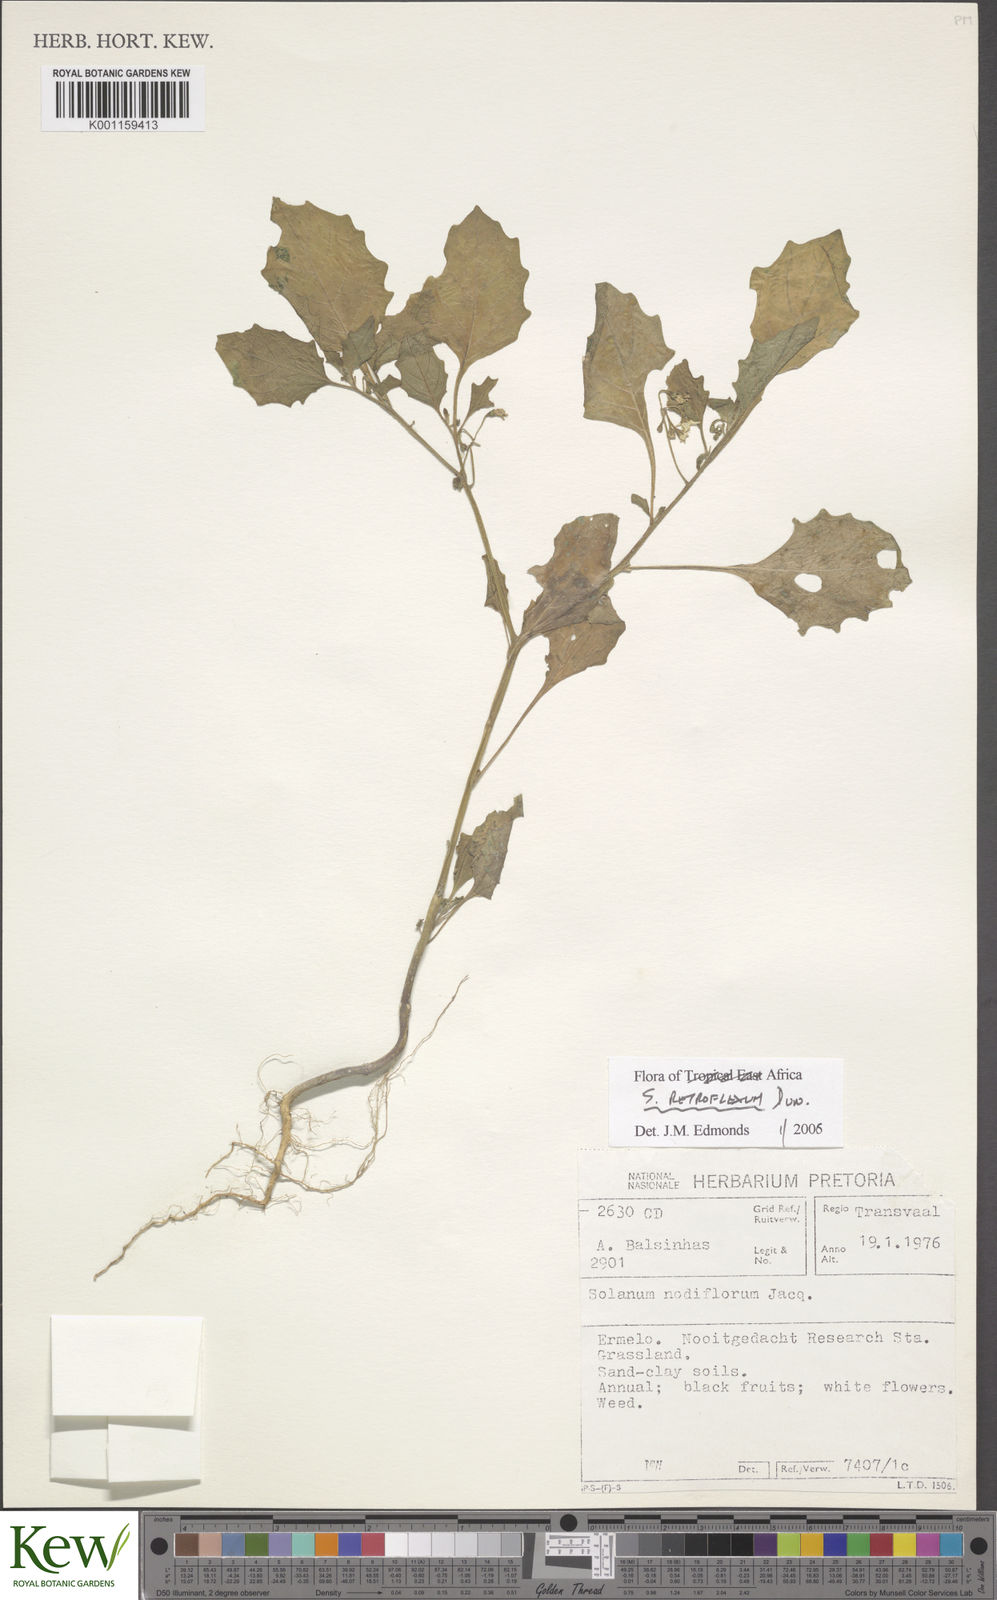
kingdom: Plantae
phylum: Tracheophyta
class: Magnoliopsida
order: Solanales
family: Solanaceae
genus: Solanum
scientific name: Solanum retroflexum
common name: Wonderberry
